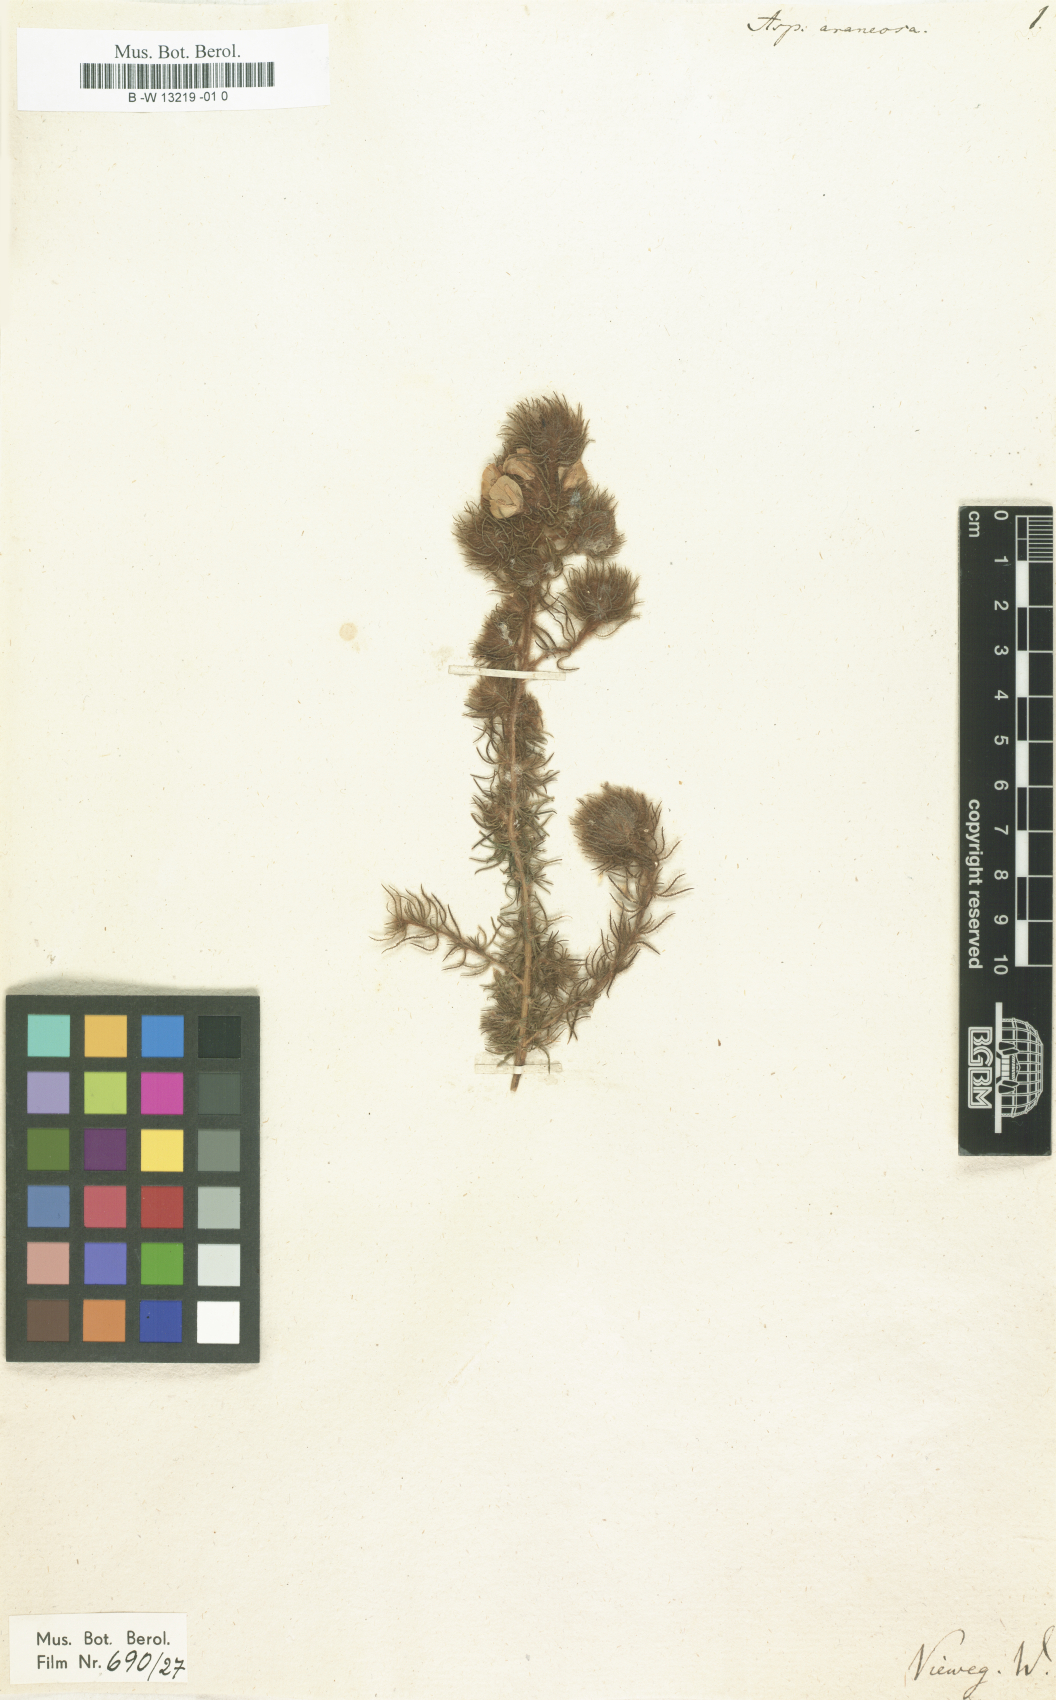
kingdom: Plantae
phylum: Tracheophyta
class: Magnoliopsida
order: Fabales
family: Fabaceae
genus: Aspalathus
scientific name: Aspalathus araneosa
